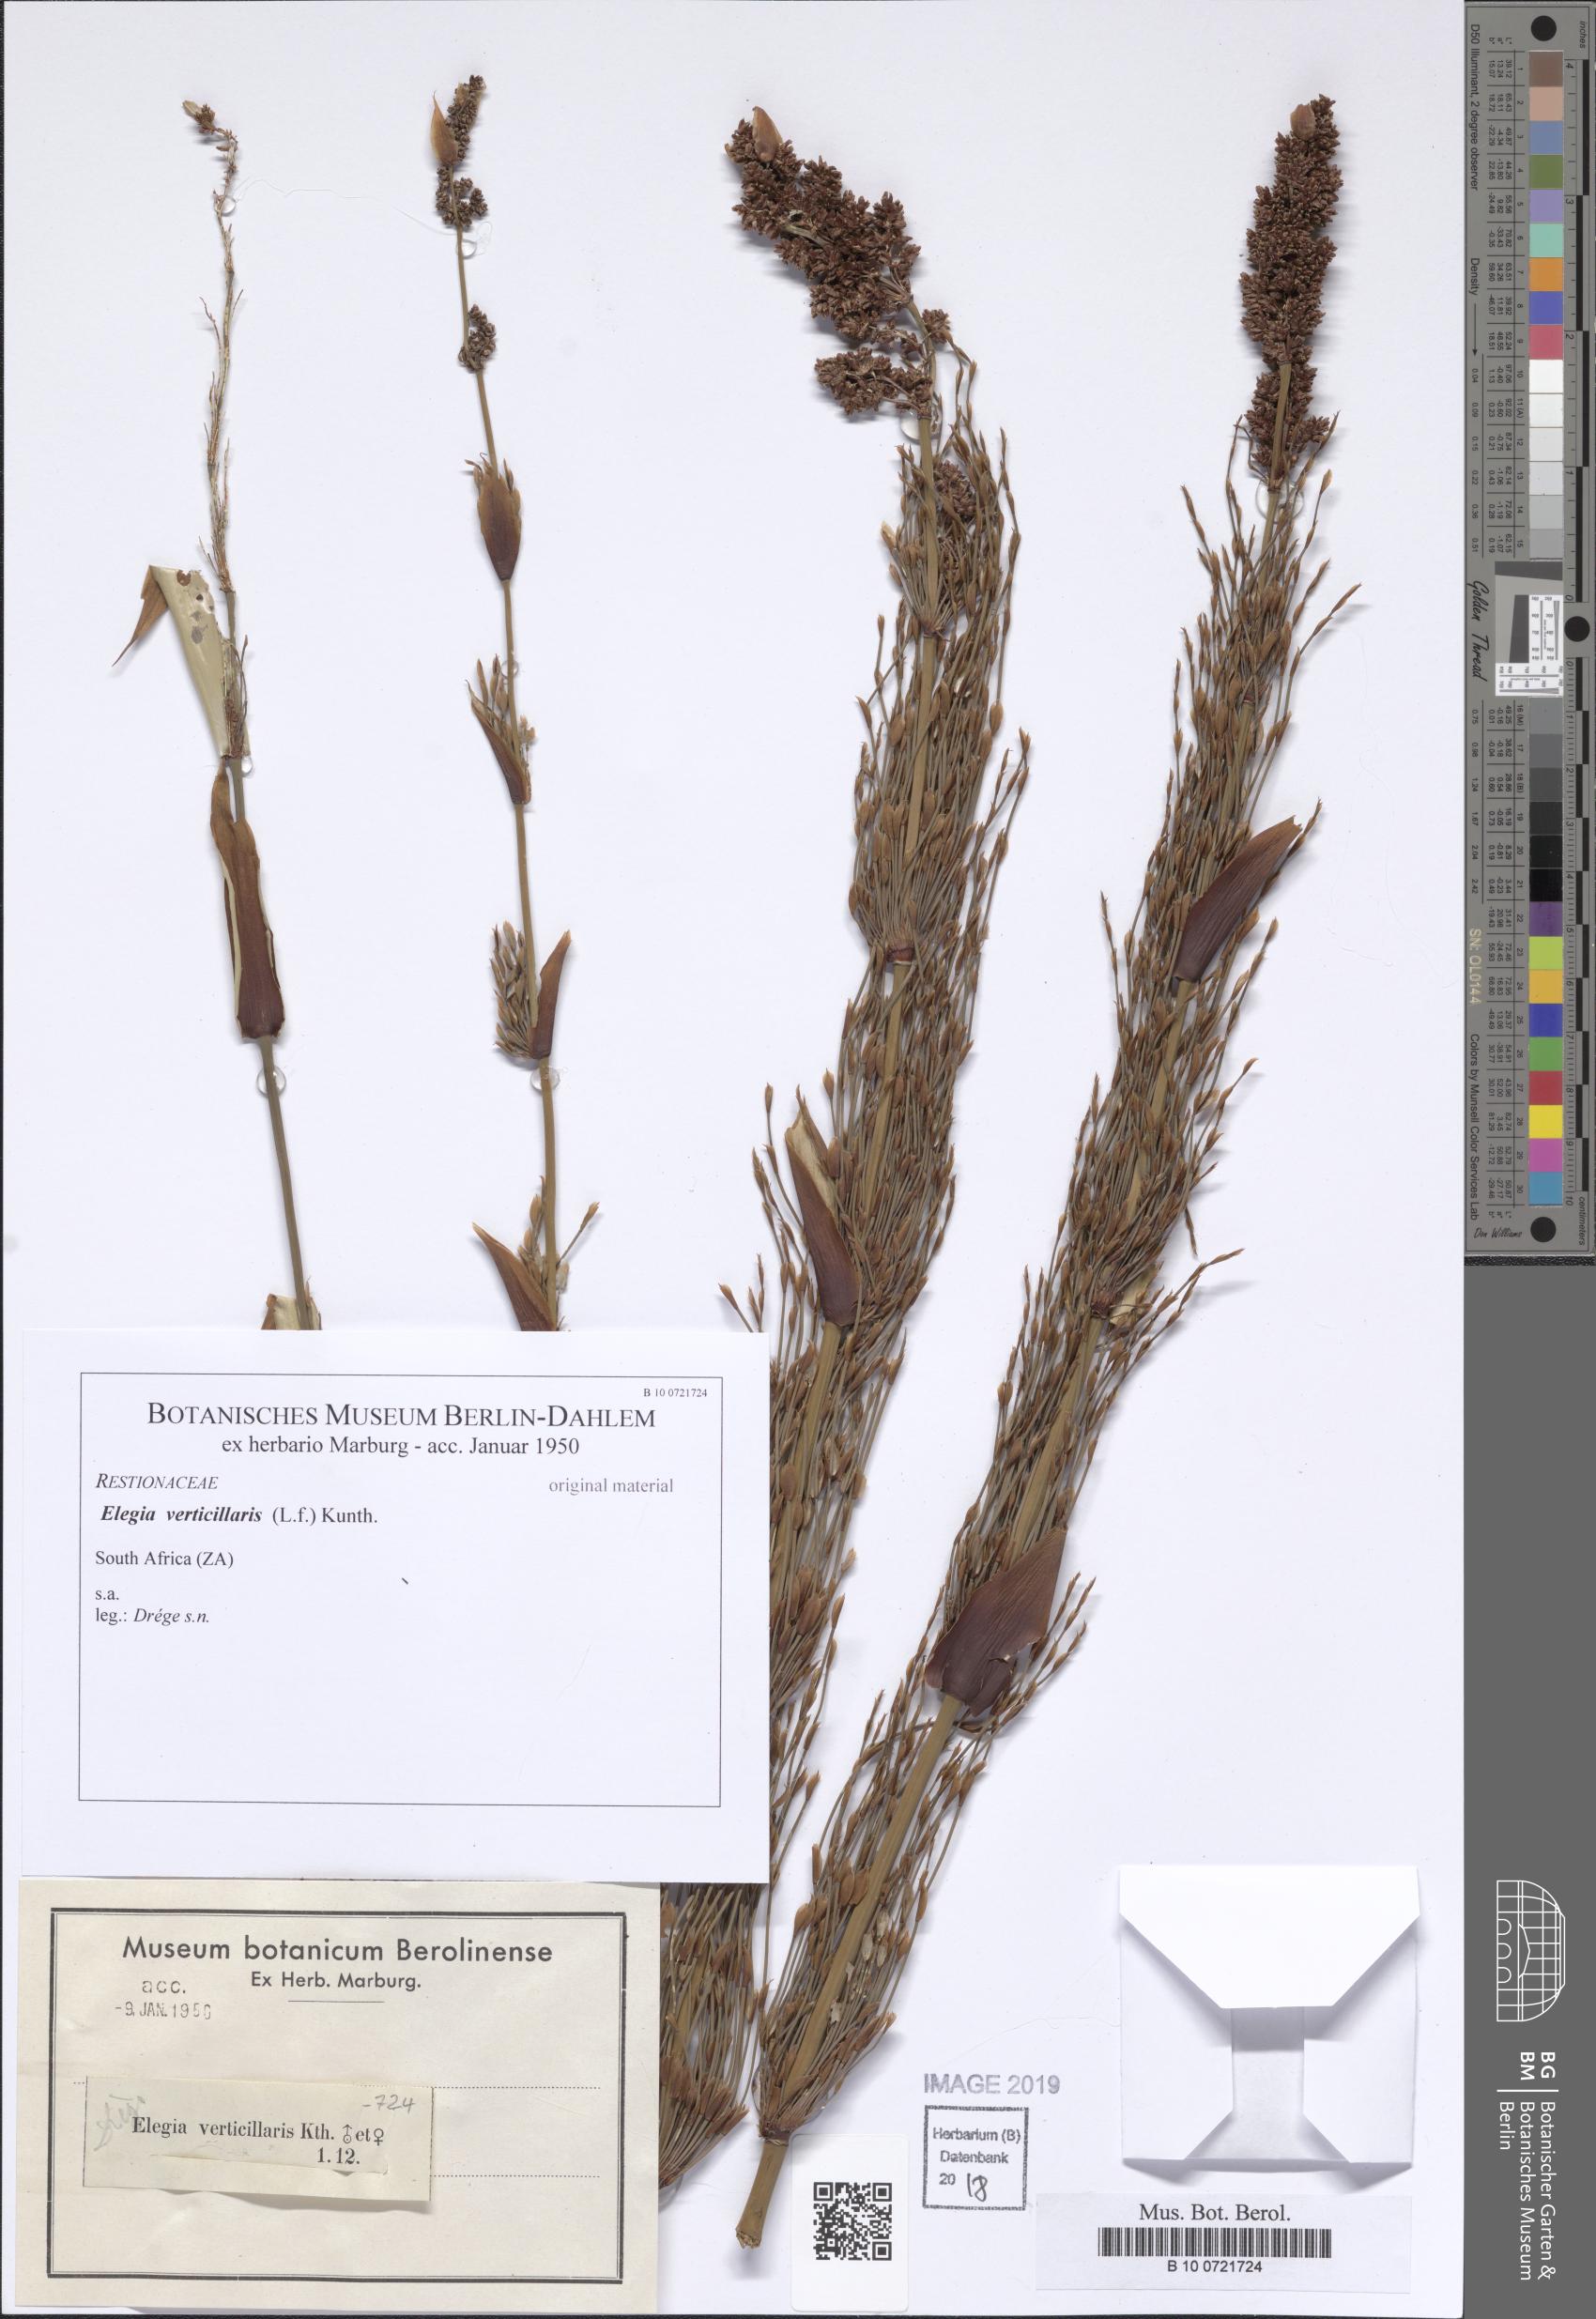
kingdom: Plantae
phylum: Tracheophyta
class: Liliopsida
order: Poales
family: Restionaceae
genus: Elegia
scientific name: Elegia capensis
